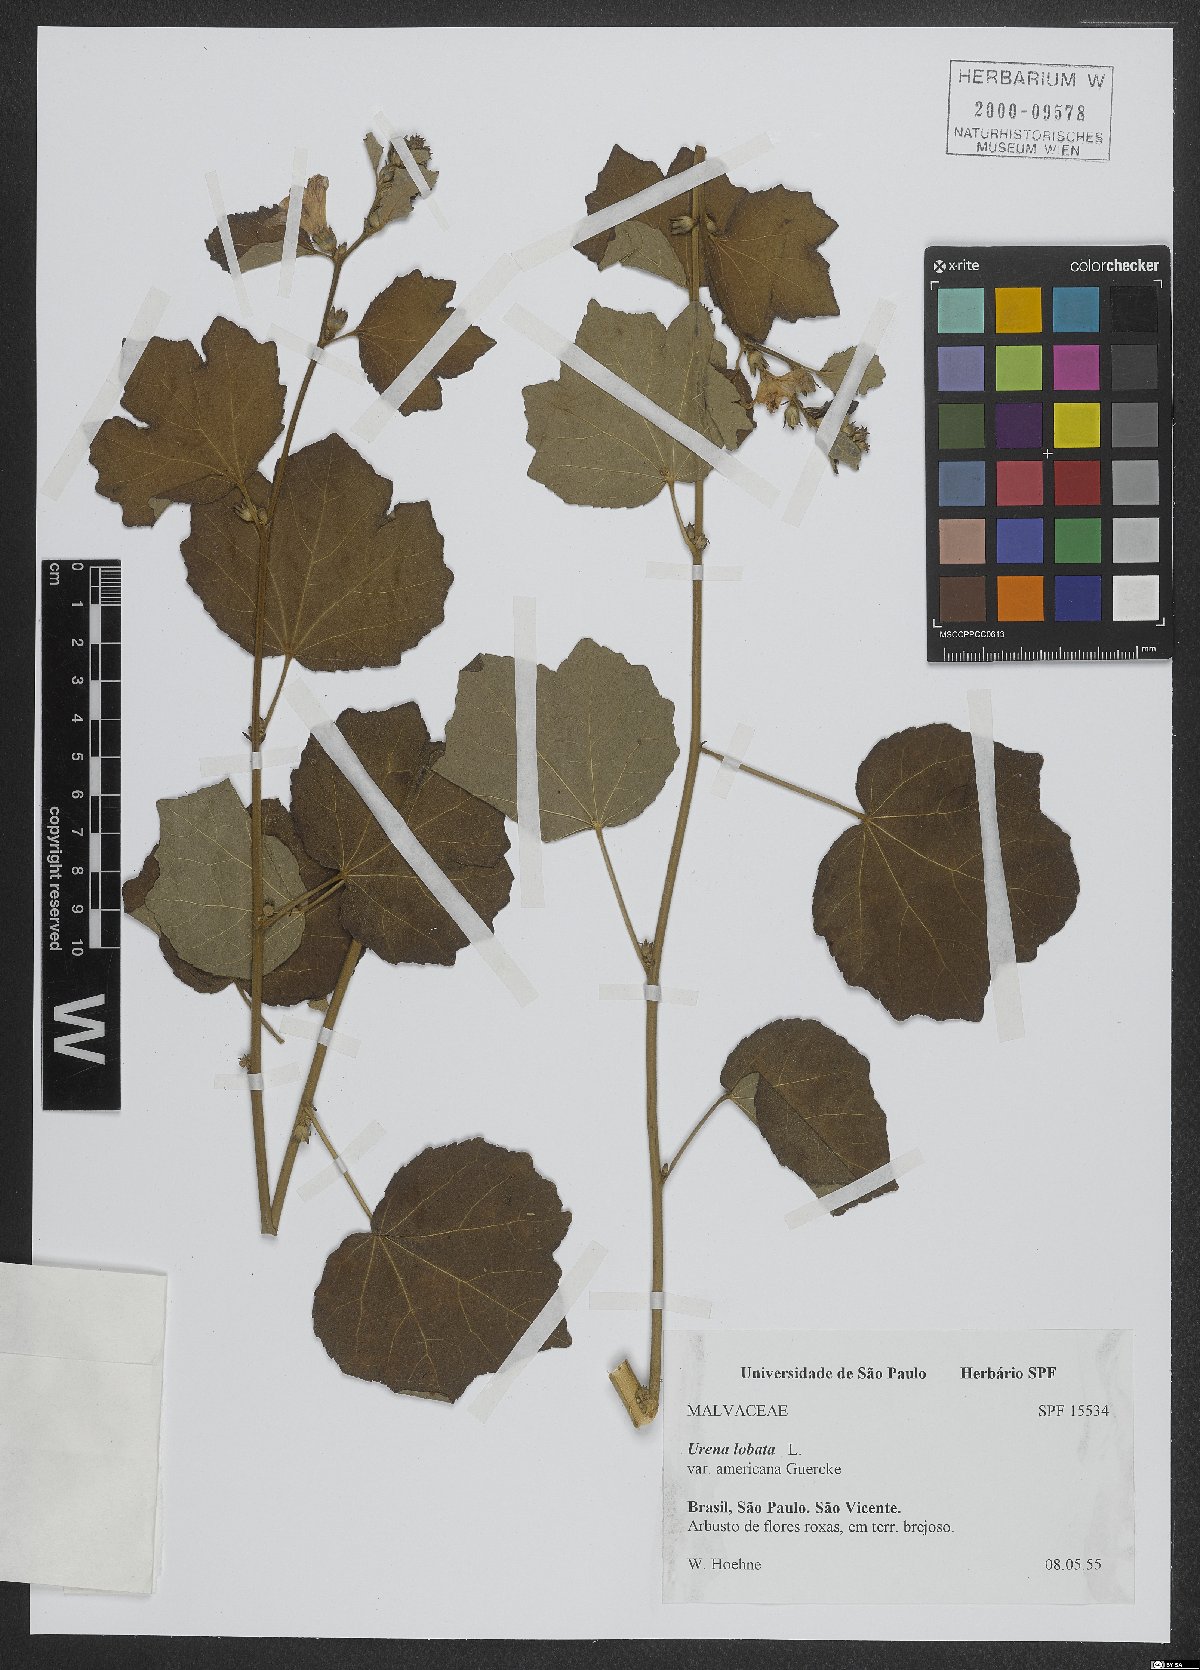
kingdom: Plantae
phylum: Tracheophyta
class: Magnoliopsida
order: Malvales
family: Malvaceae
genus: Urena
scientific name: Urena lobata
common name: Caesarweed
